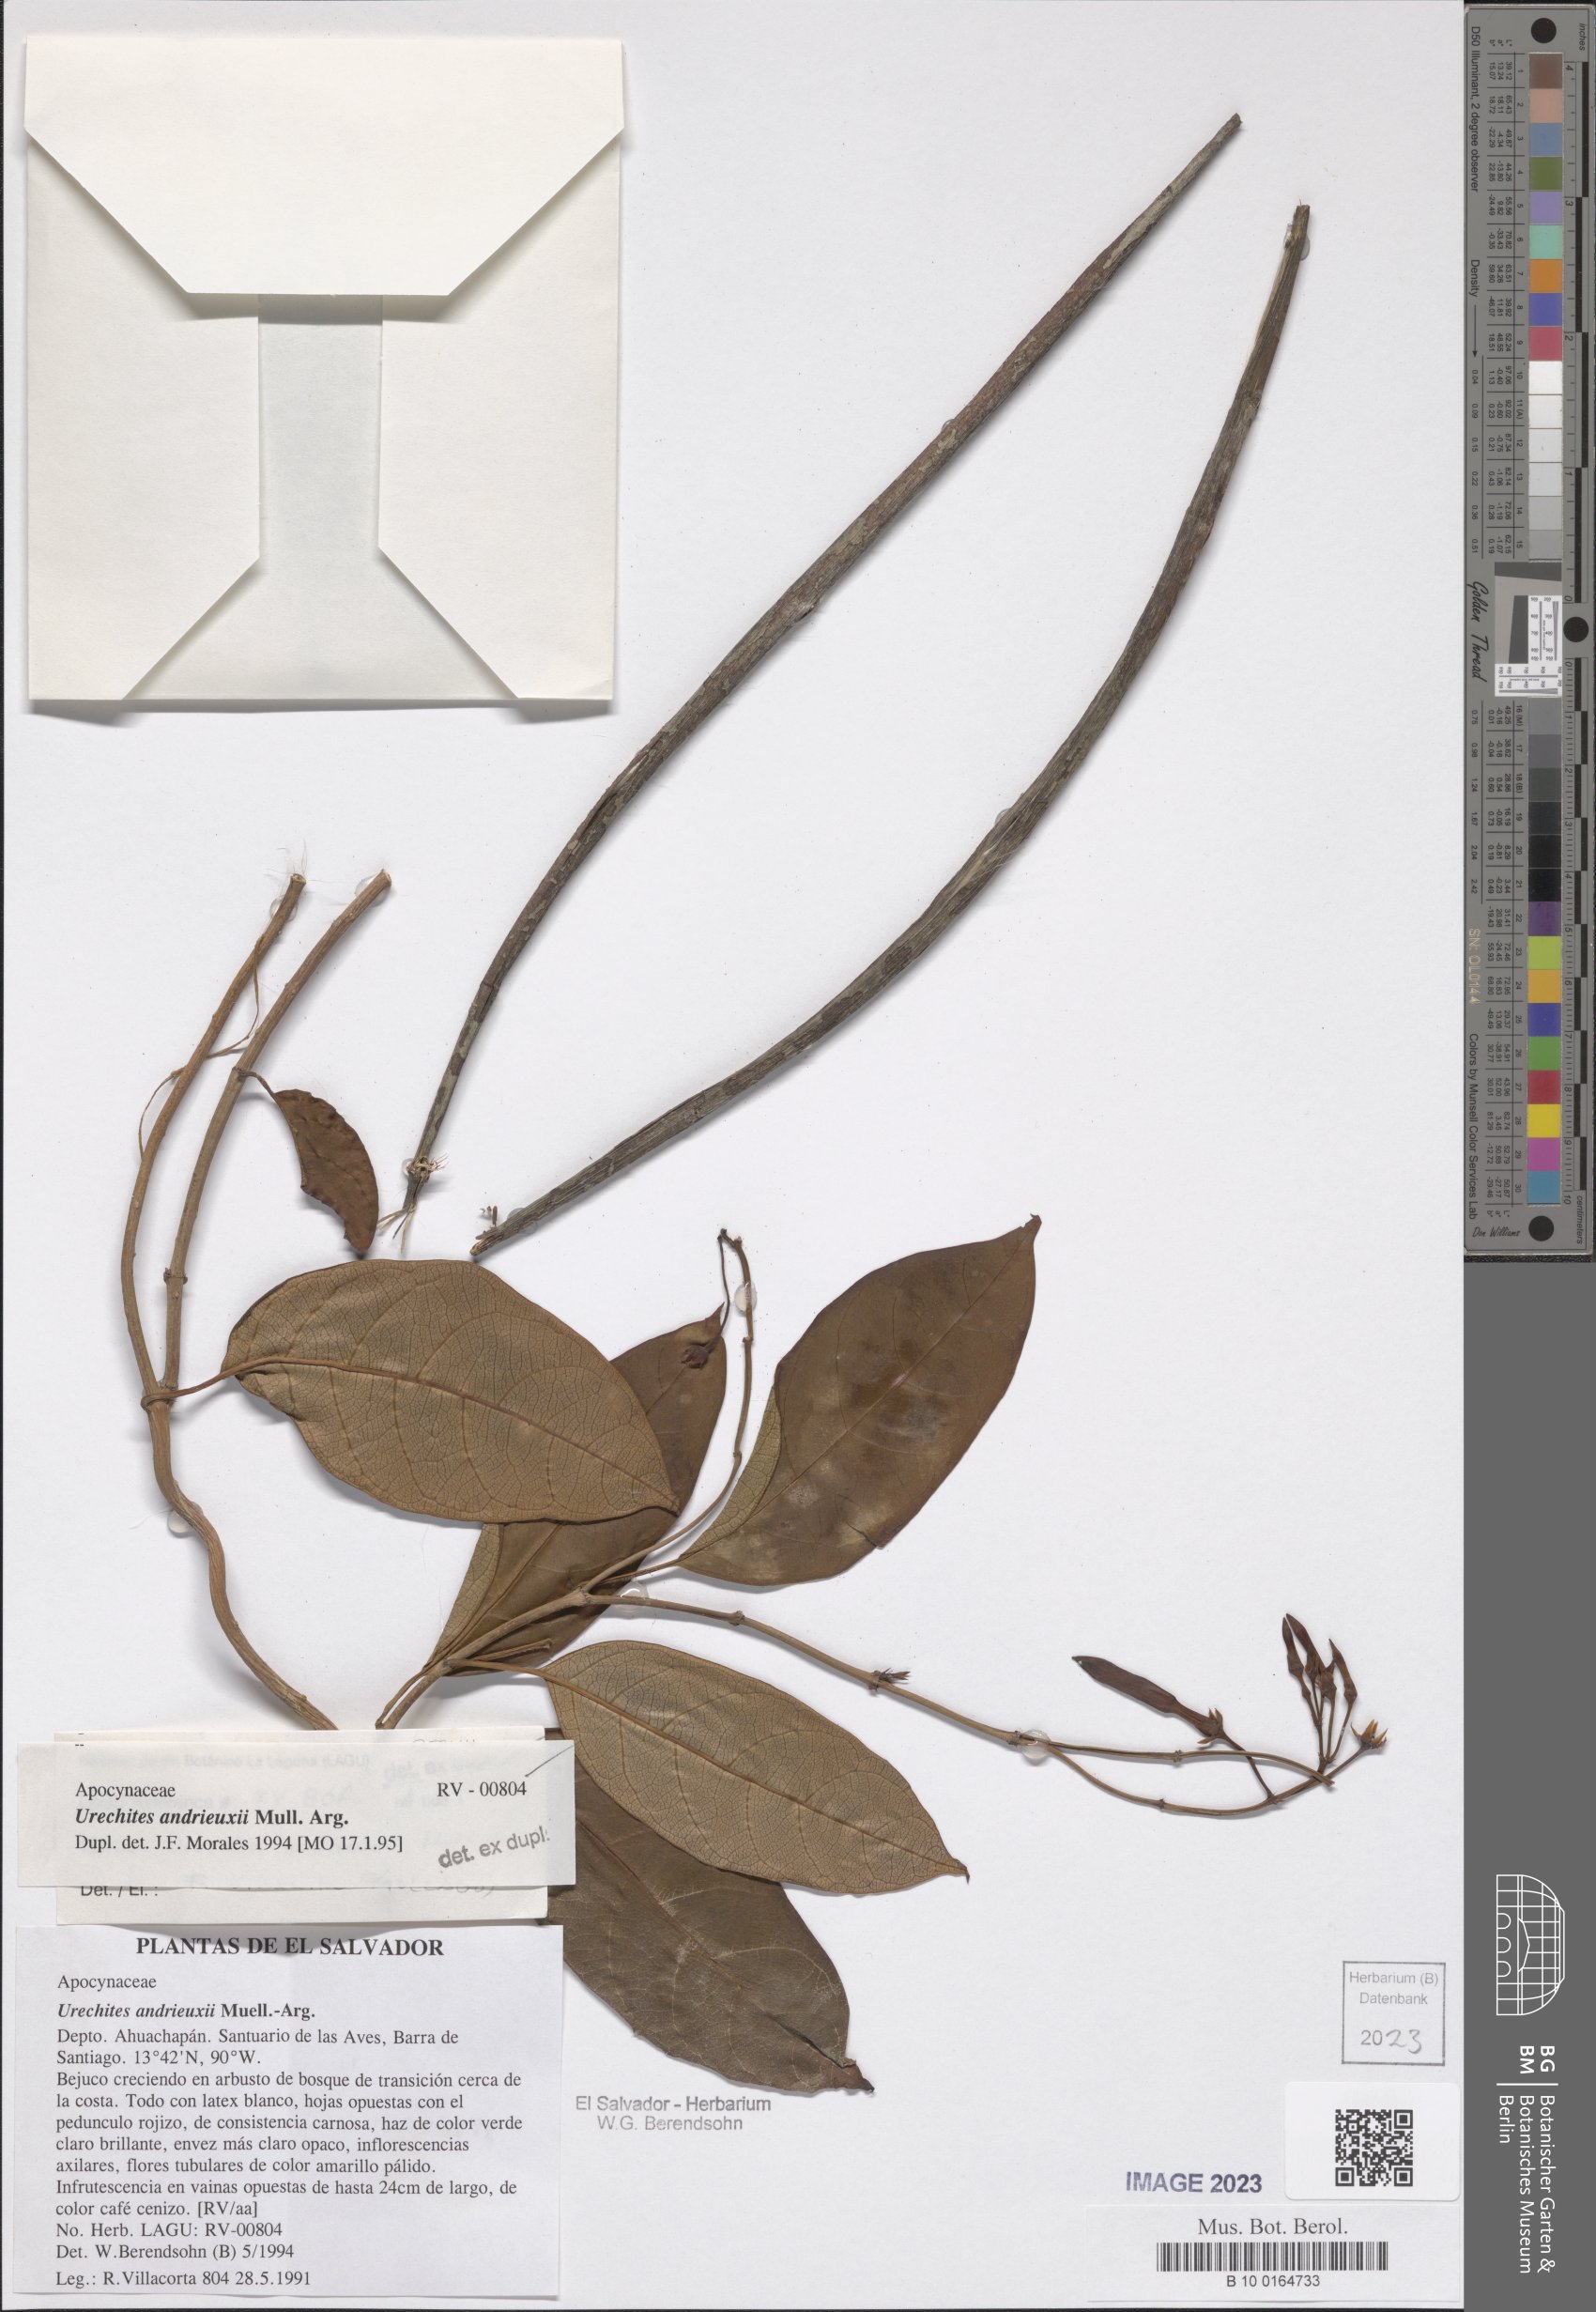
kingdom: Plantae
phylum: Tracheophyta
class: Magnoliopsida
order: Gentianales
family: Apocynaceae
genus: Pentalinon
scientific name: Pentalinon andrieuxii
